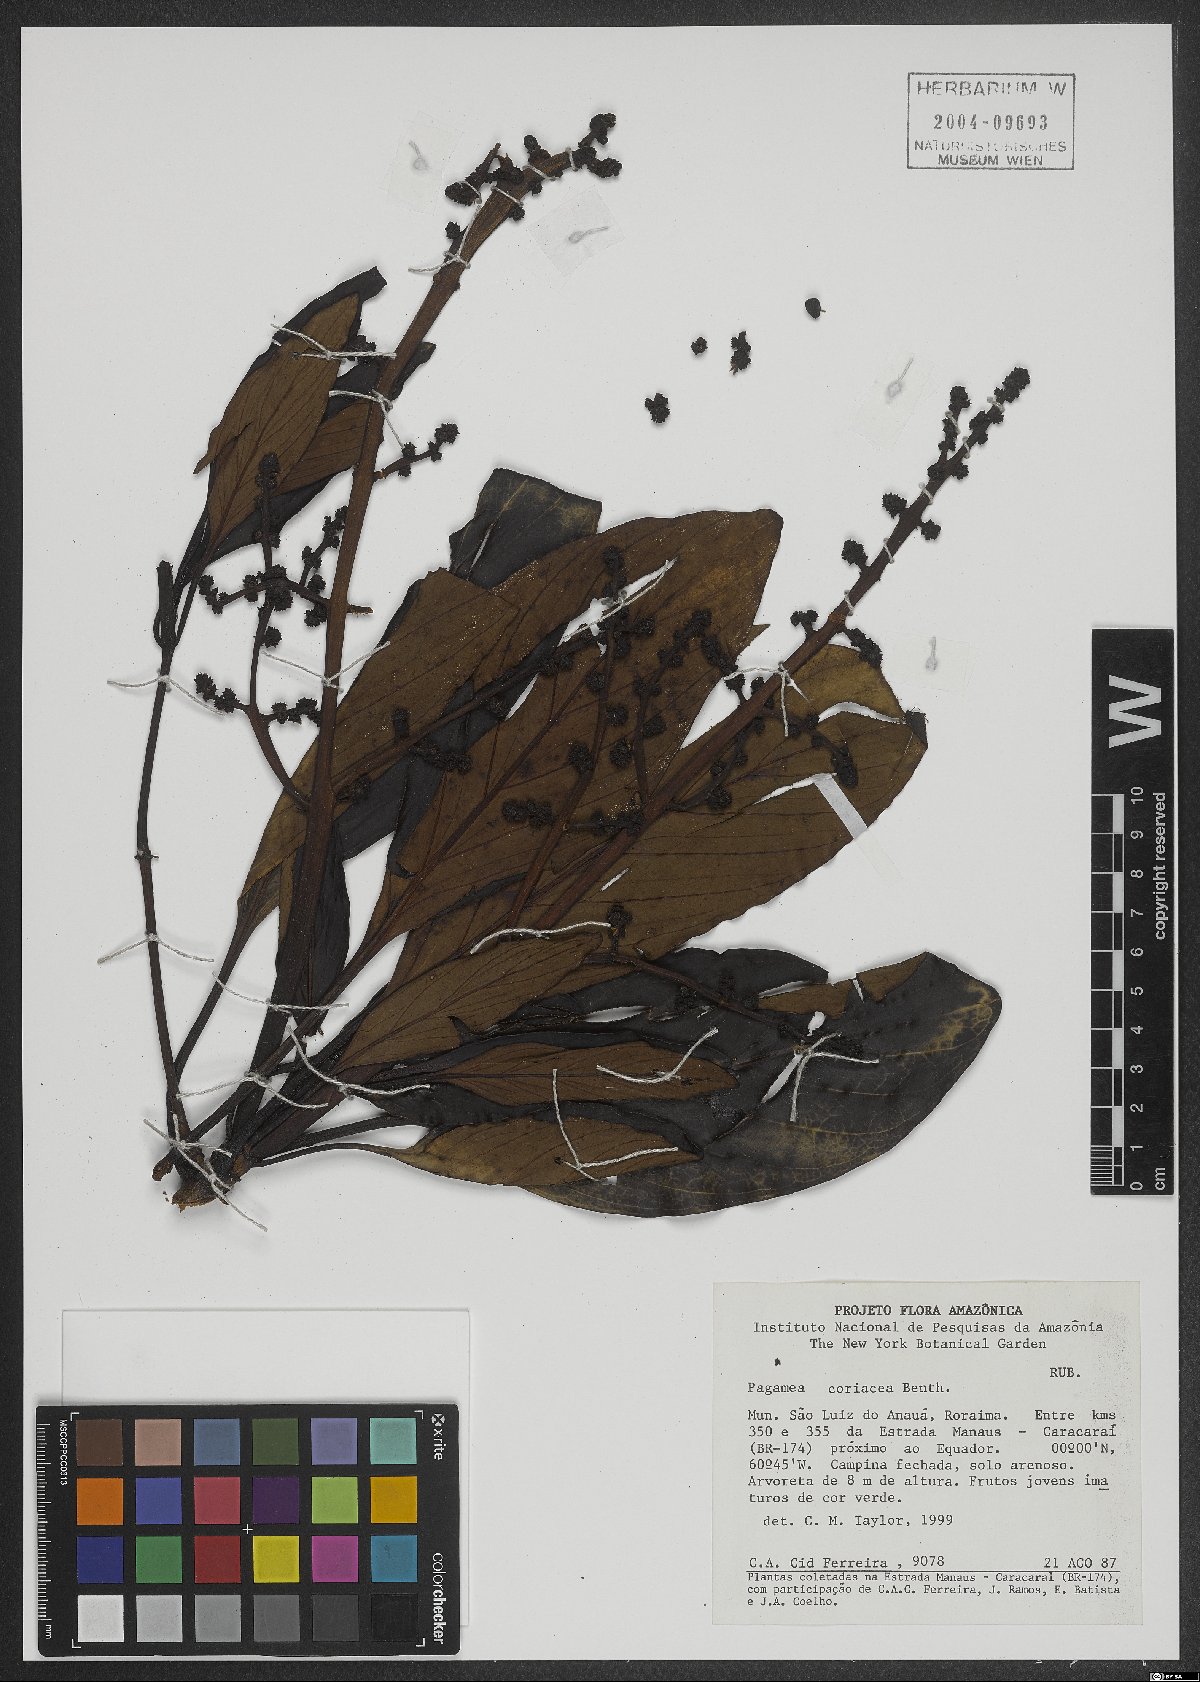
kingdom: Plantae
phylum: Tracheophyta
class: Magnoliopsida
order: Gentianales
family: Rubiaceae
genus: Pagamea
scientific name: Pagamea coriacea
